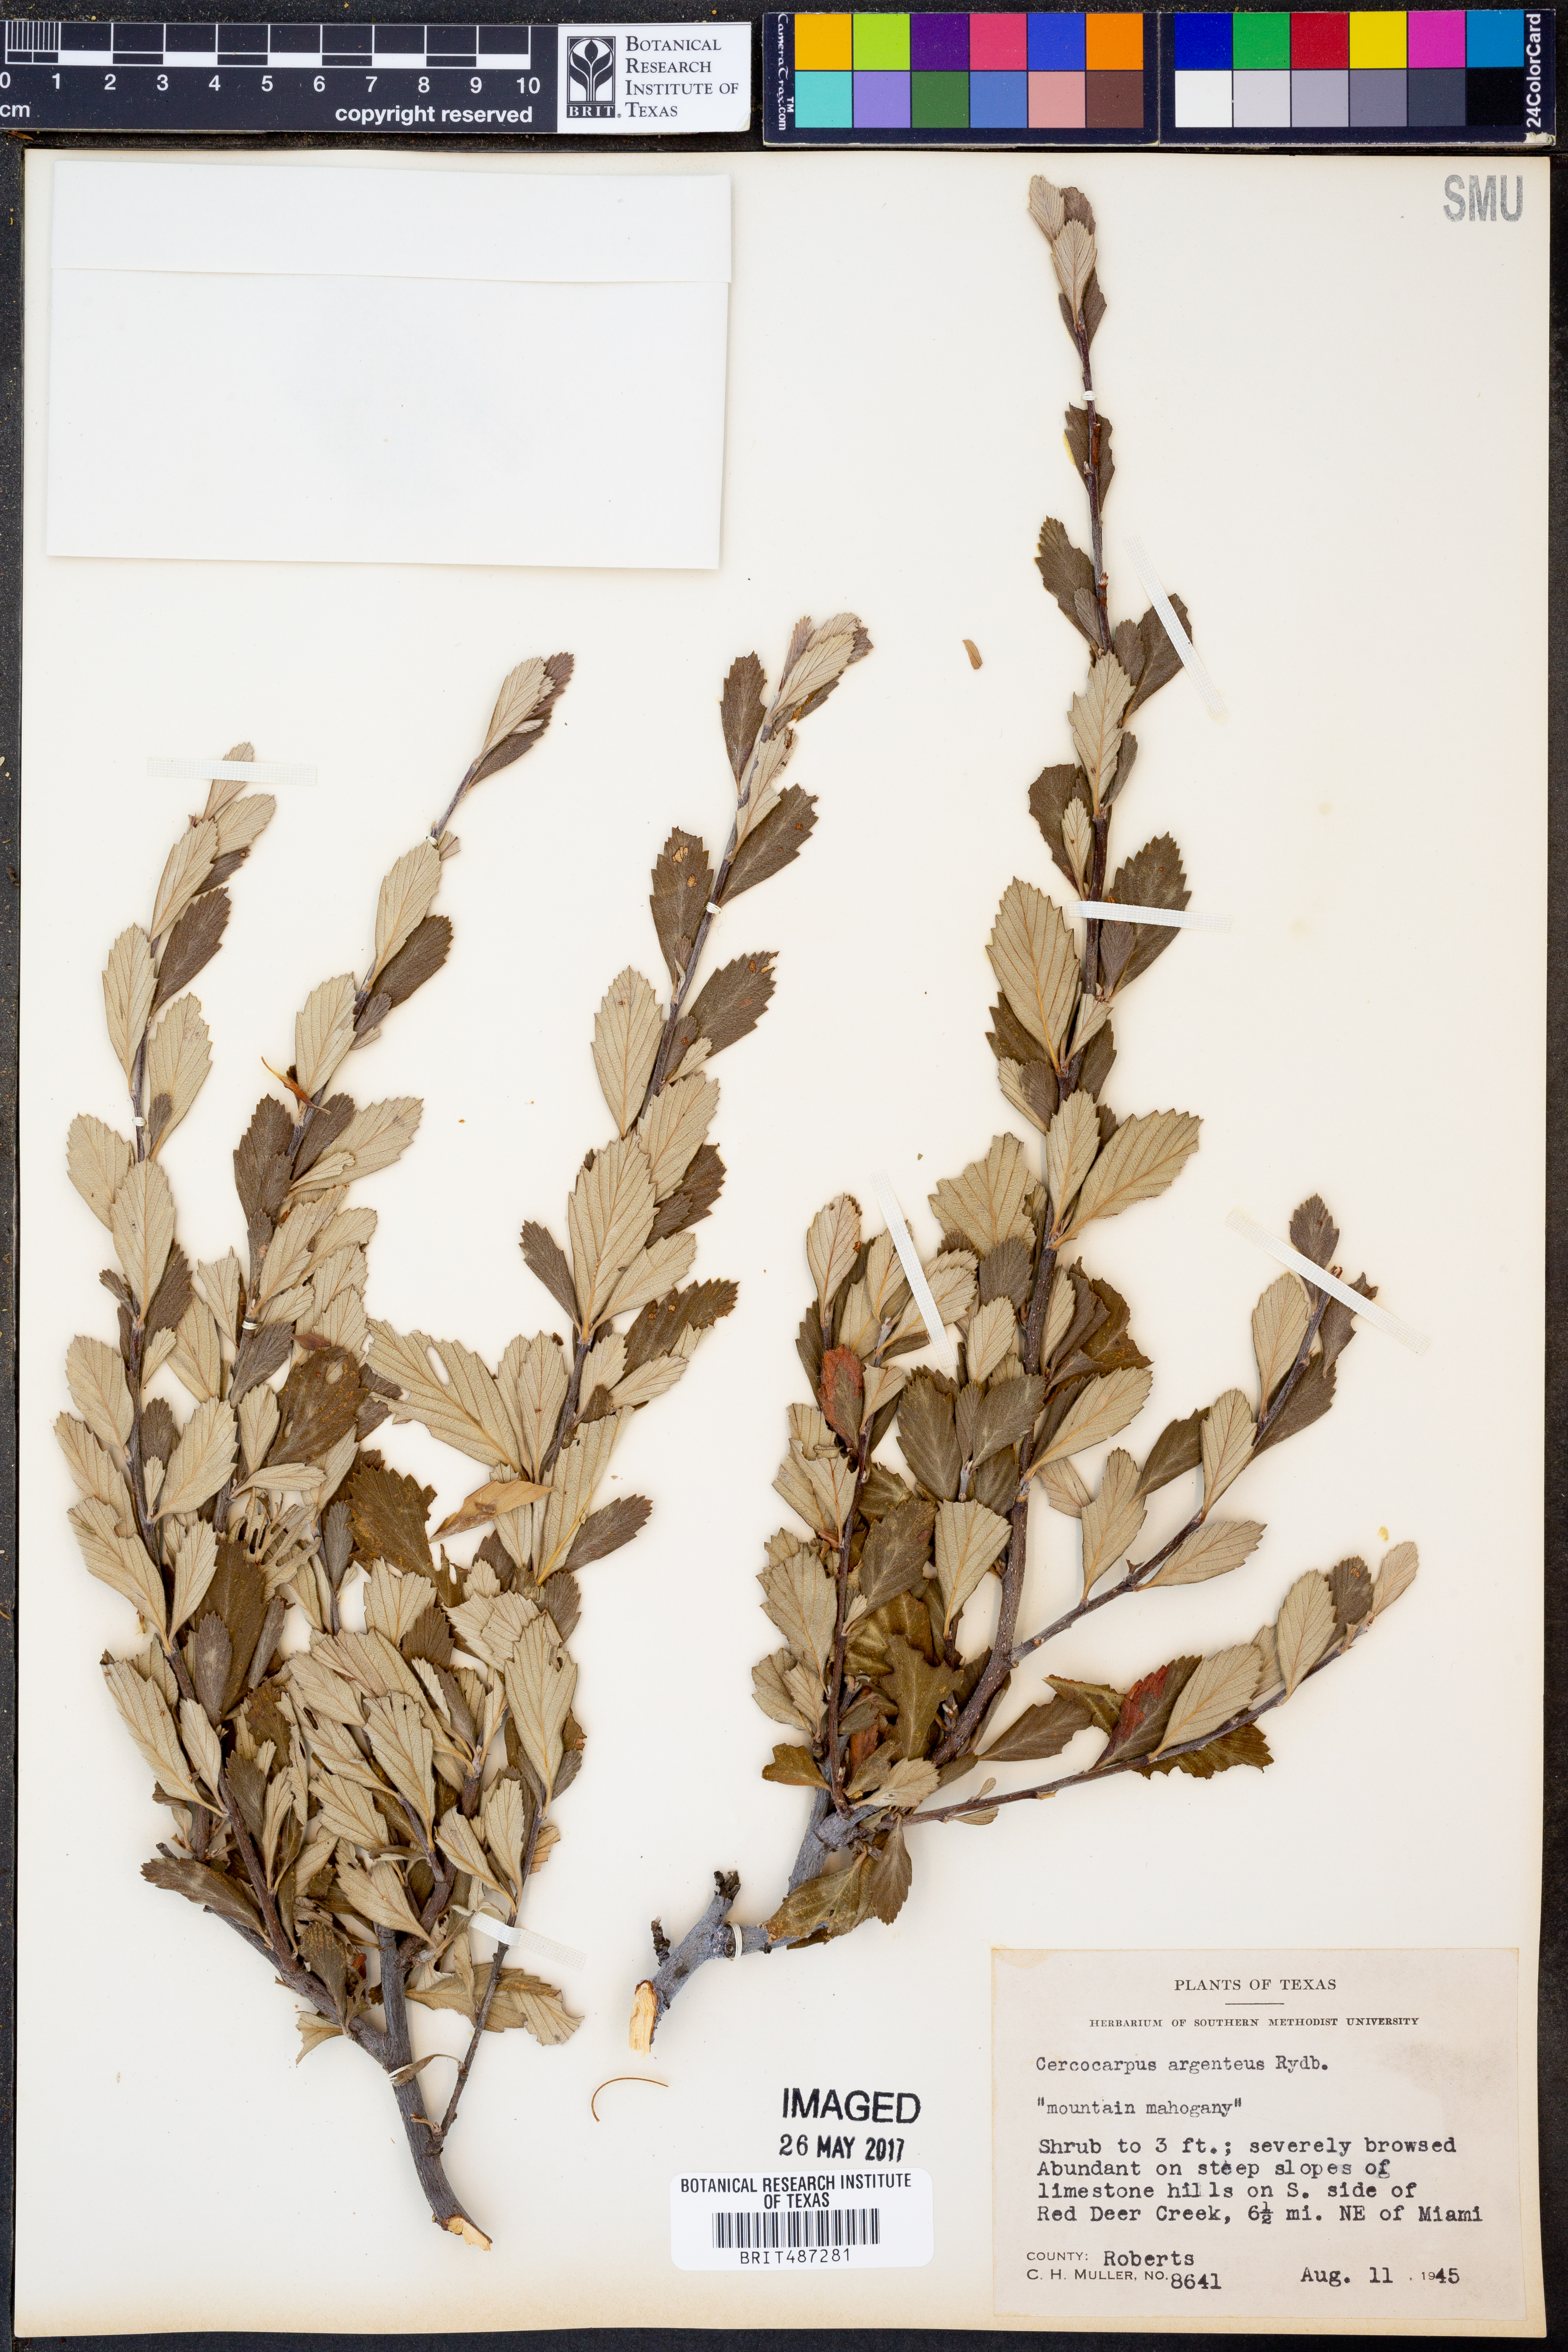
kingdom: Plantae
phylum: Tracheophyta
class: Magnoliopsida
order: Rosales
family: Rosaceae
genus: Cercocarpus
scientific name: Cercocarpus intricatus
